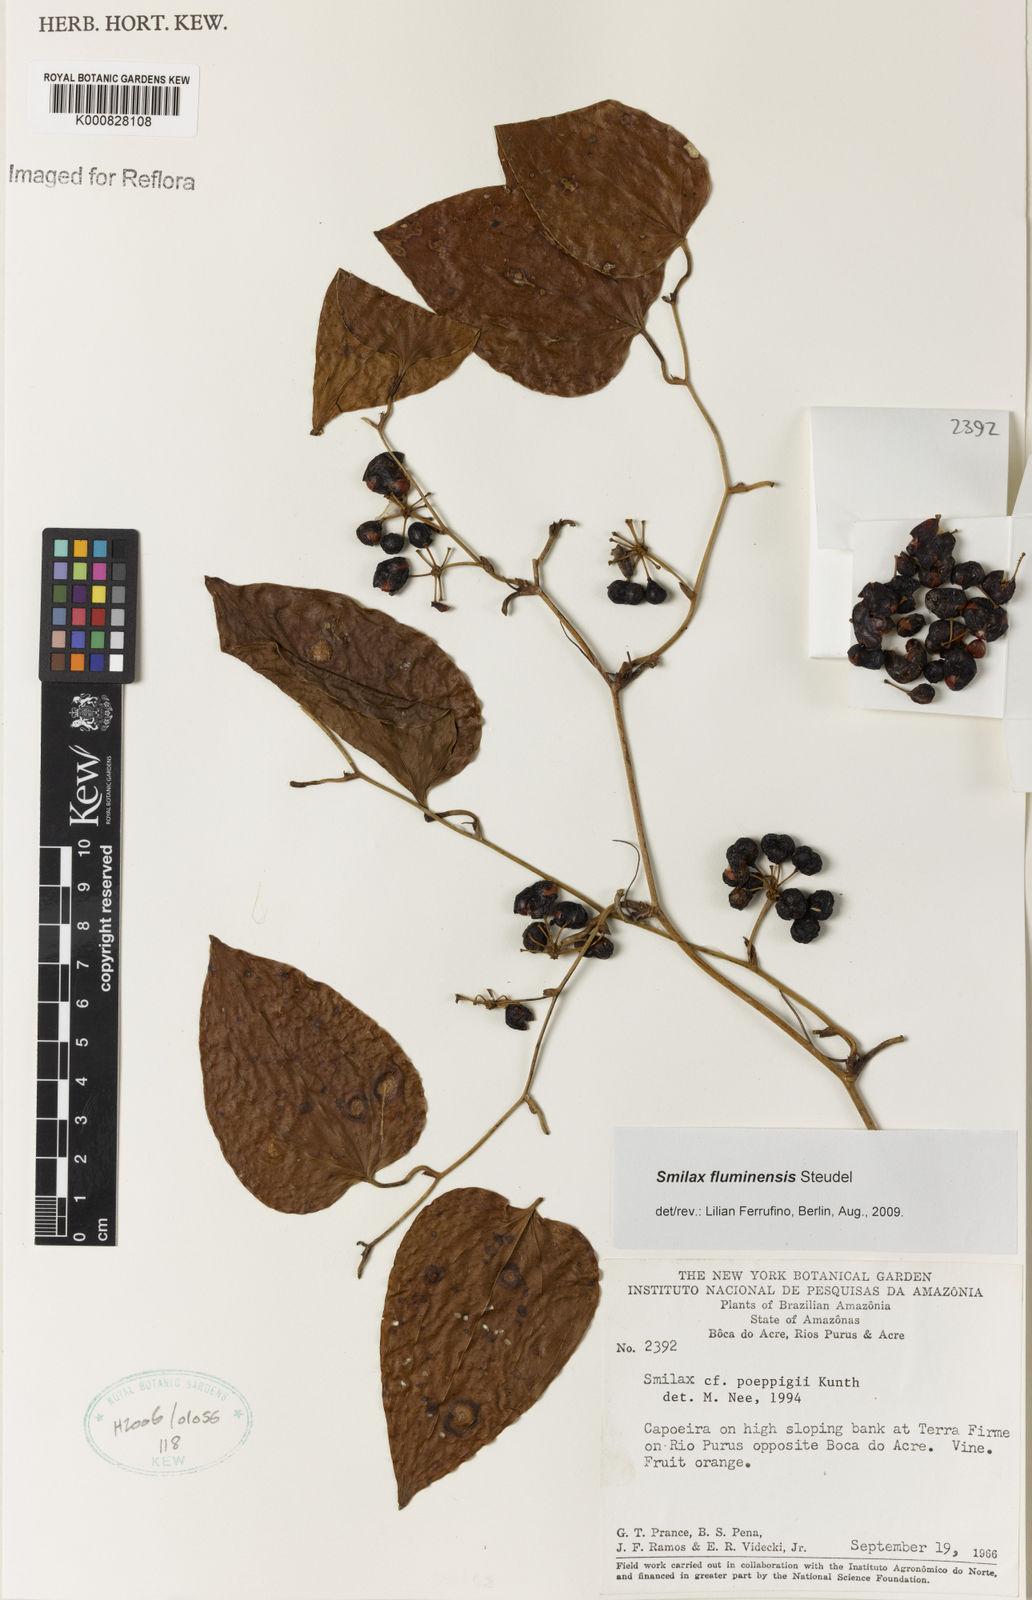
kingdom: Plantae
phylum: Tracheophyta
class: Liliopsida
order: Liliales
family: Smilacaceae
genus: Smilax
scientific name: Smilax fluminensis
